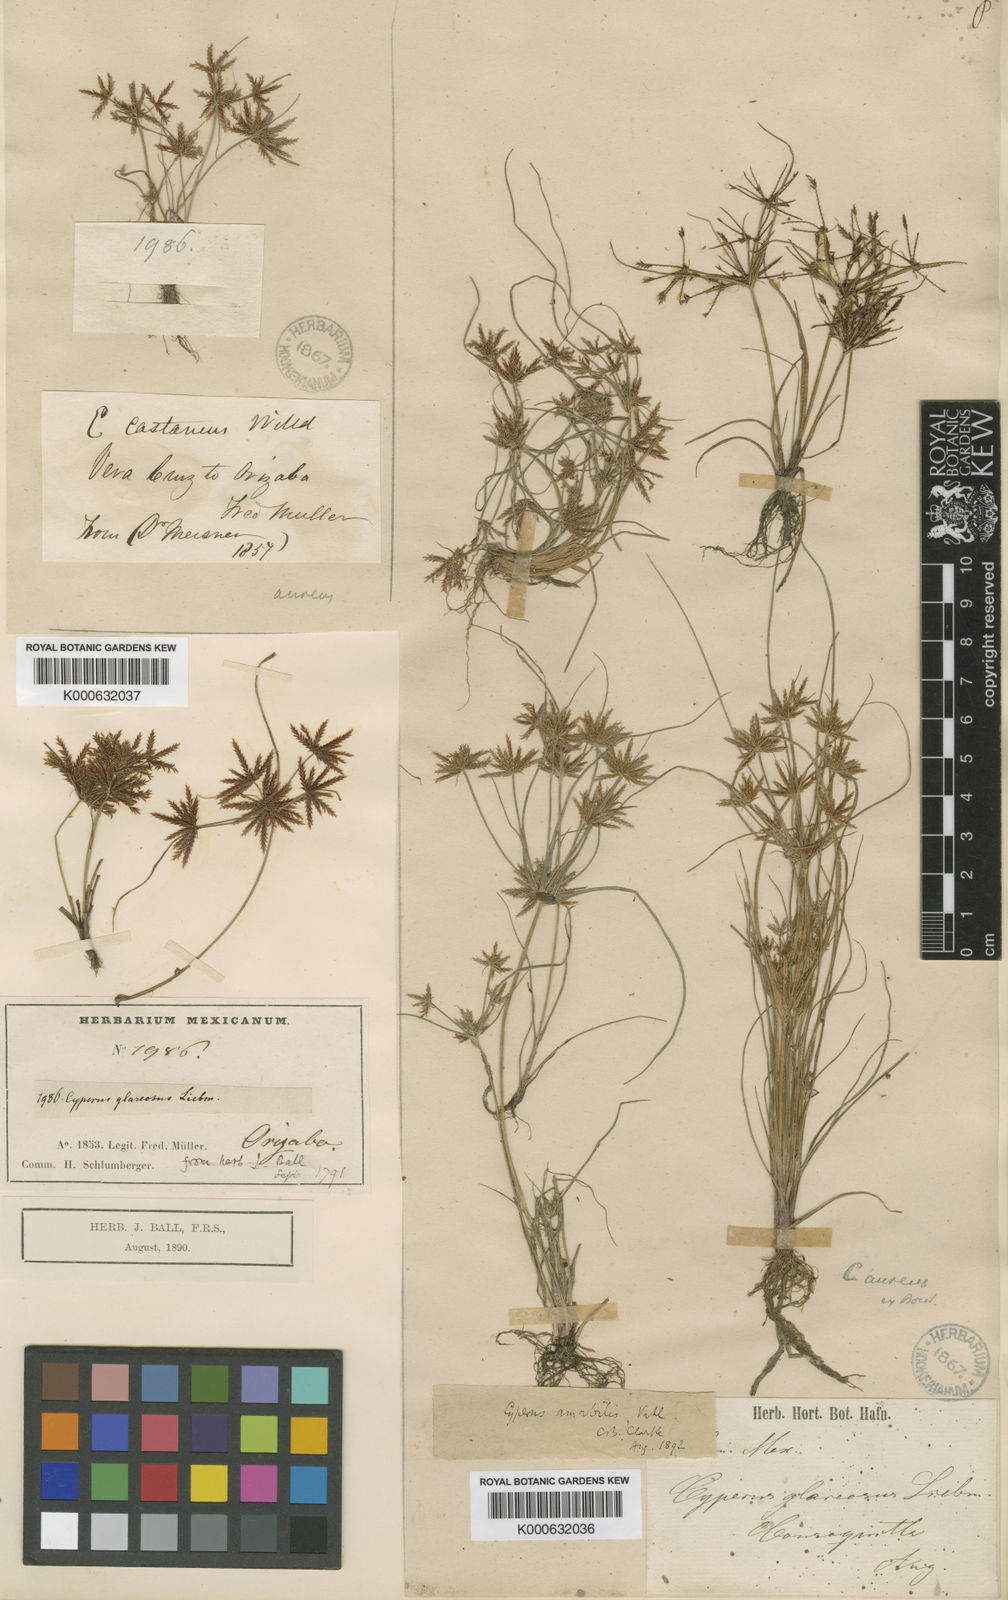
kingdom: Plantae
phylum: Tracheophyta
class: Liliopsida
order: Poales
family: Cyperaceae
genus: Cyperus
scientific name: Cyperus amabilis
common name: Foothill flat sedge
